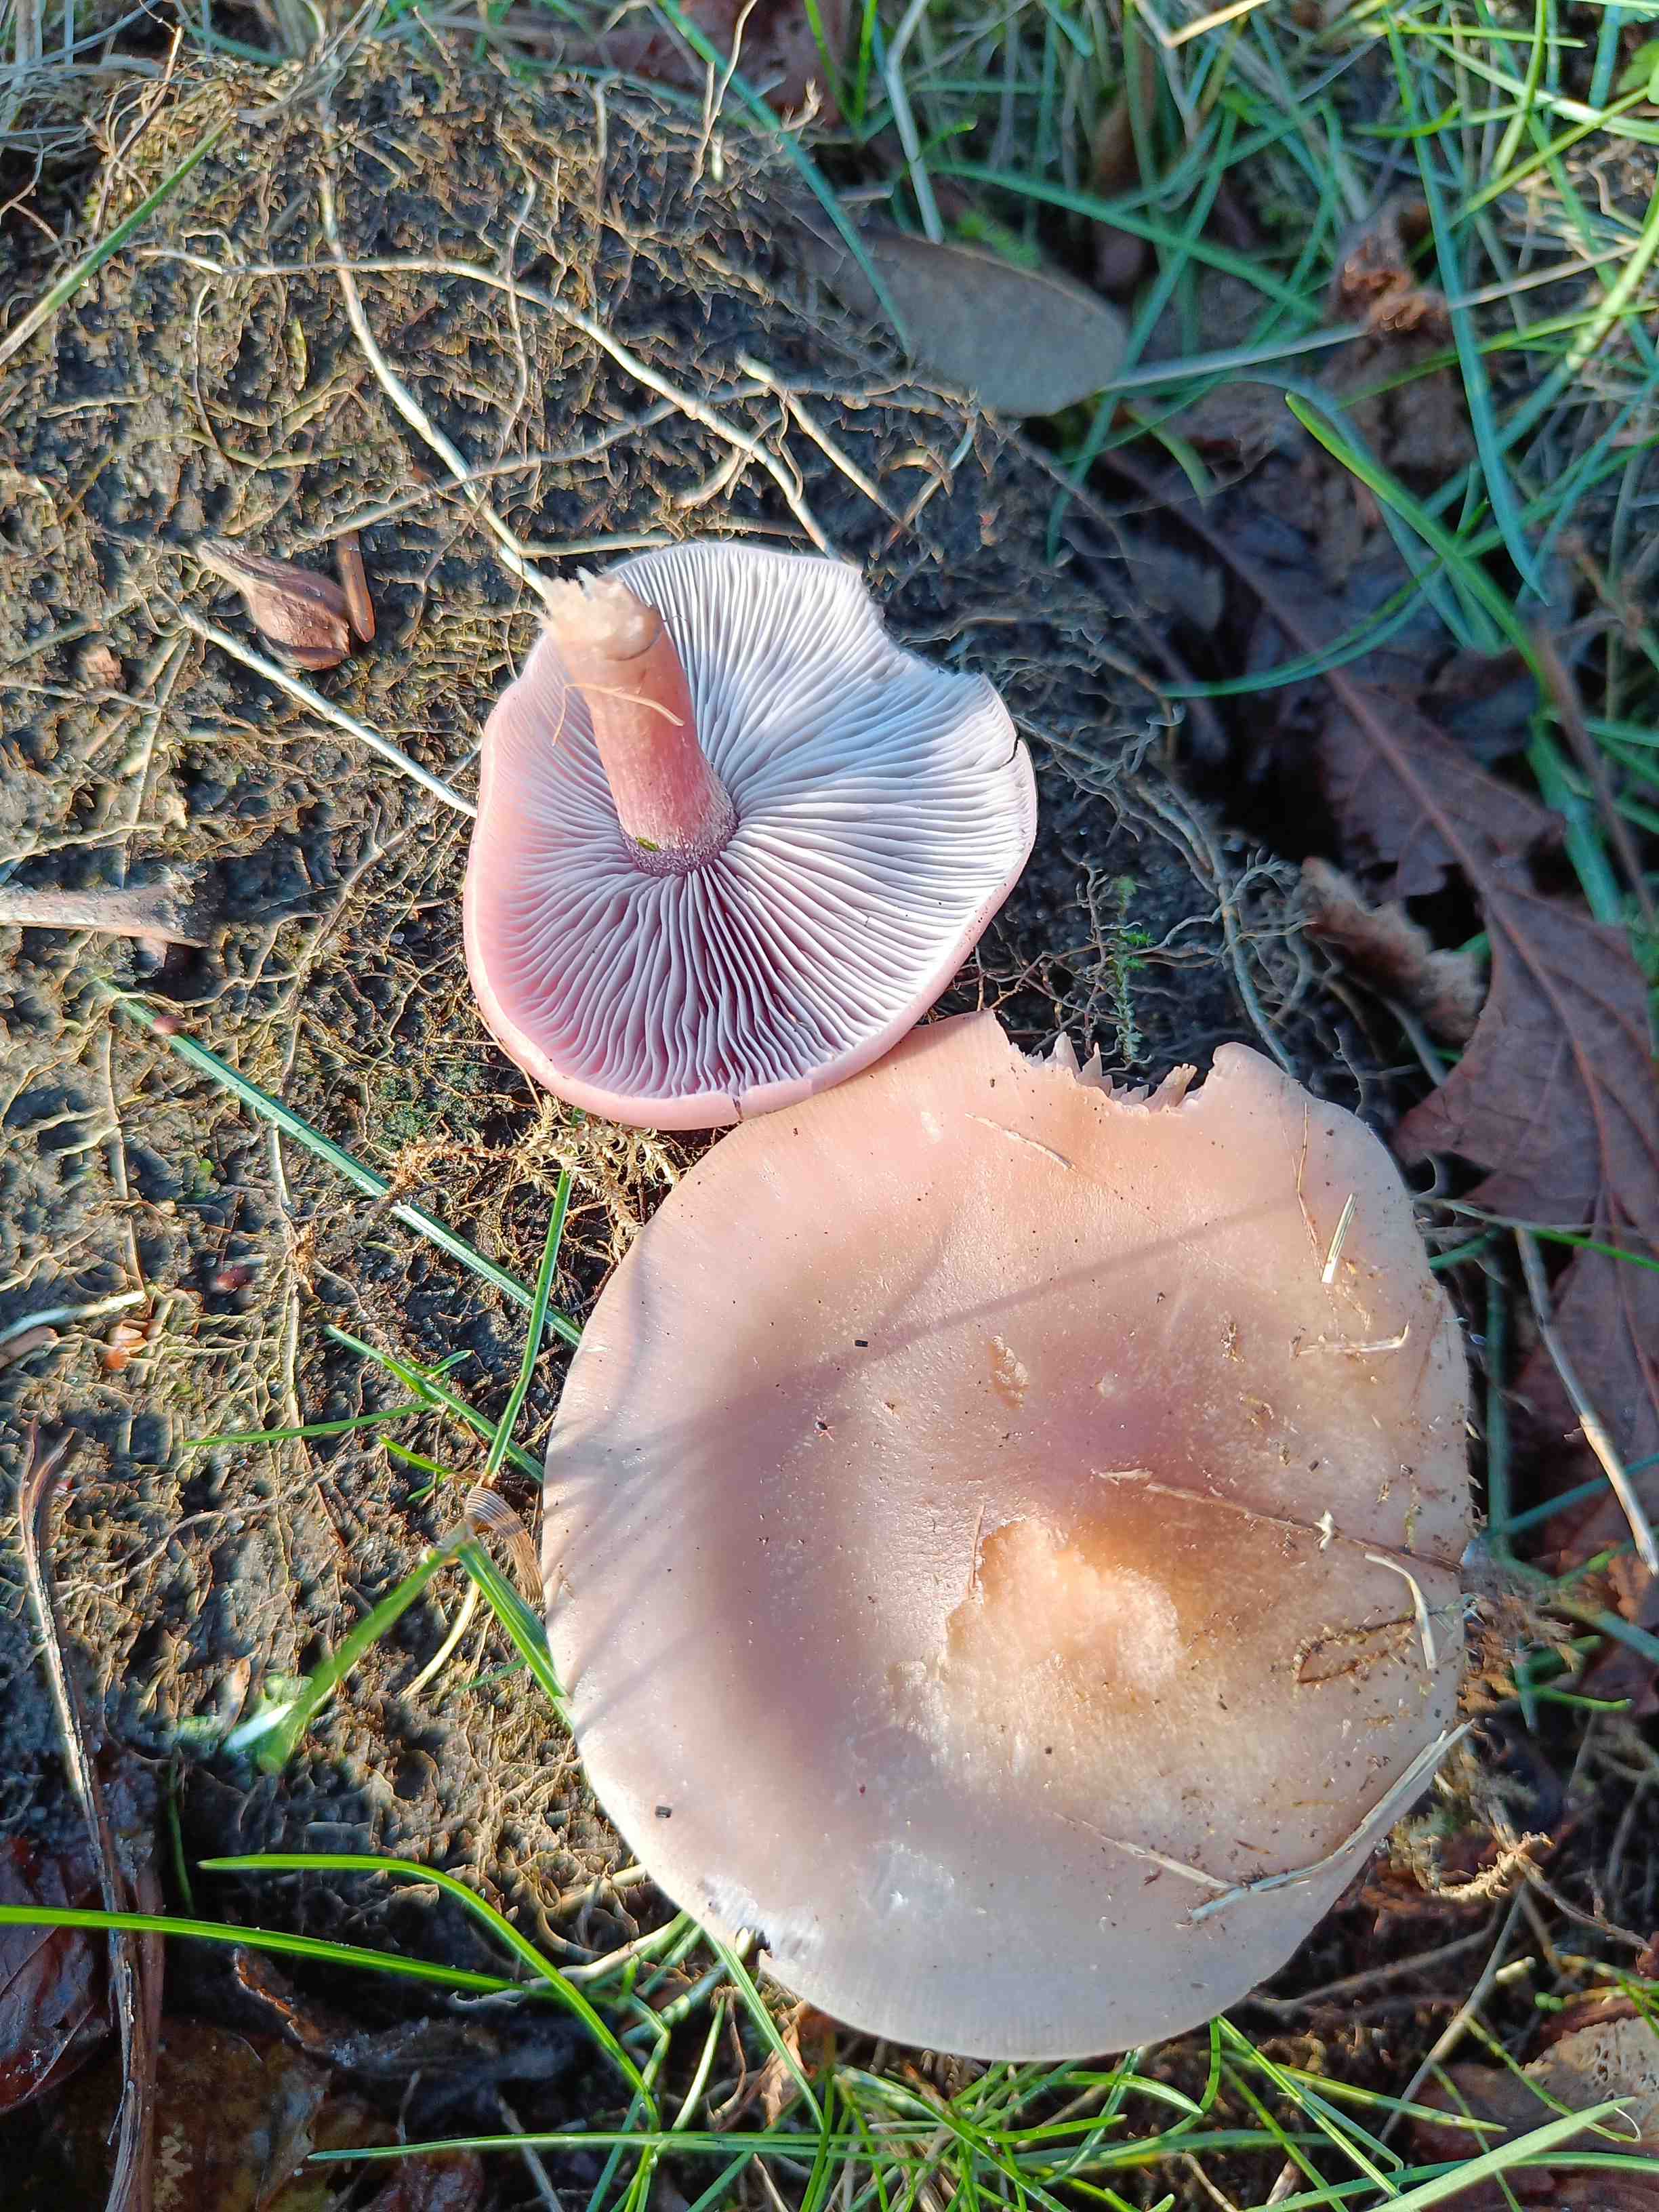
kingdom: Fungi
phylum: Basidiomycota
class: Agaricomycetes
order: Agaricales
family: Tricholomataceae
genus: Lepista
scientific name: Lepista
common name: hekseringshat
